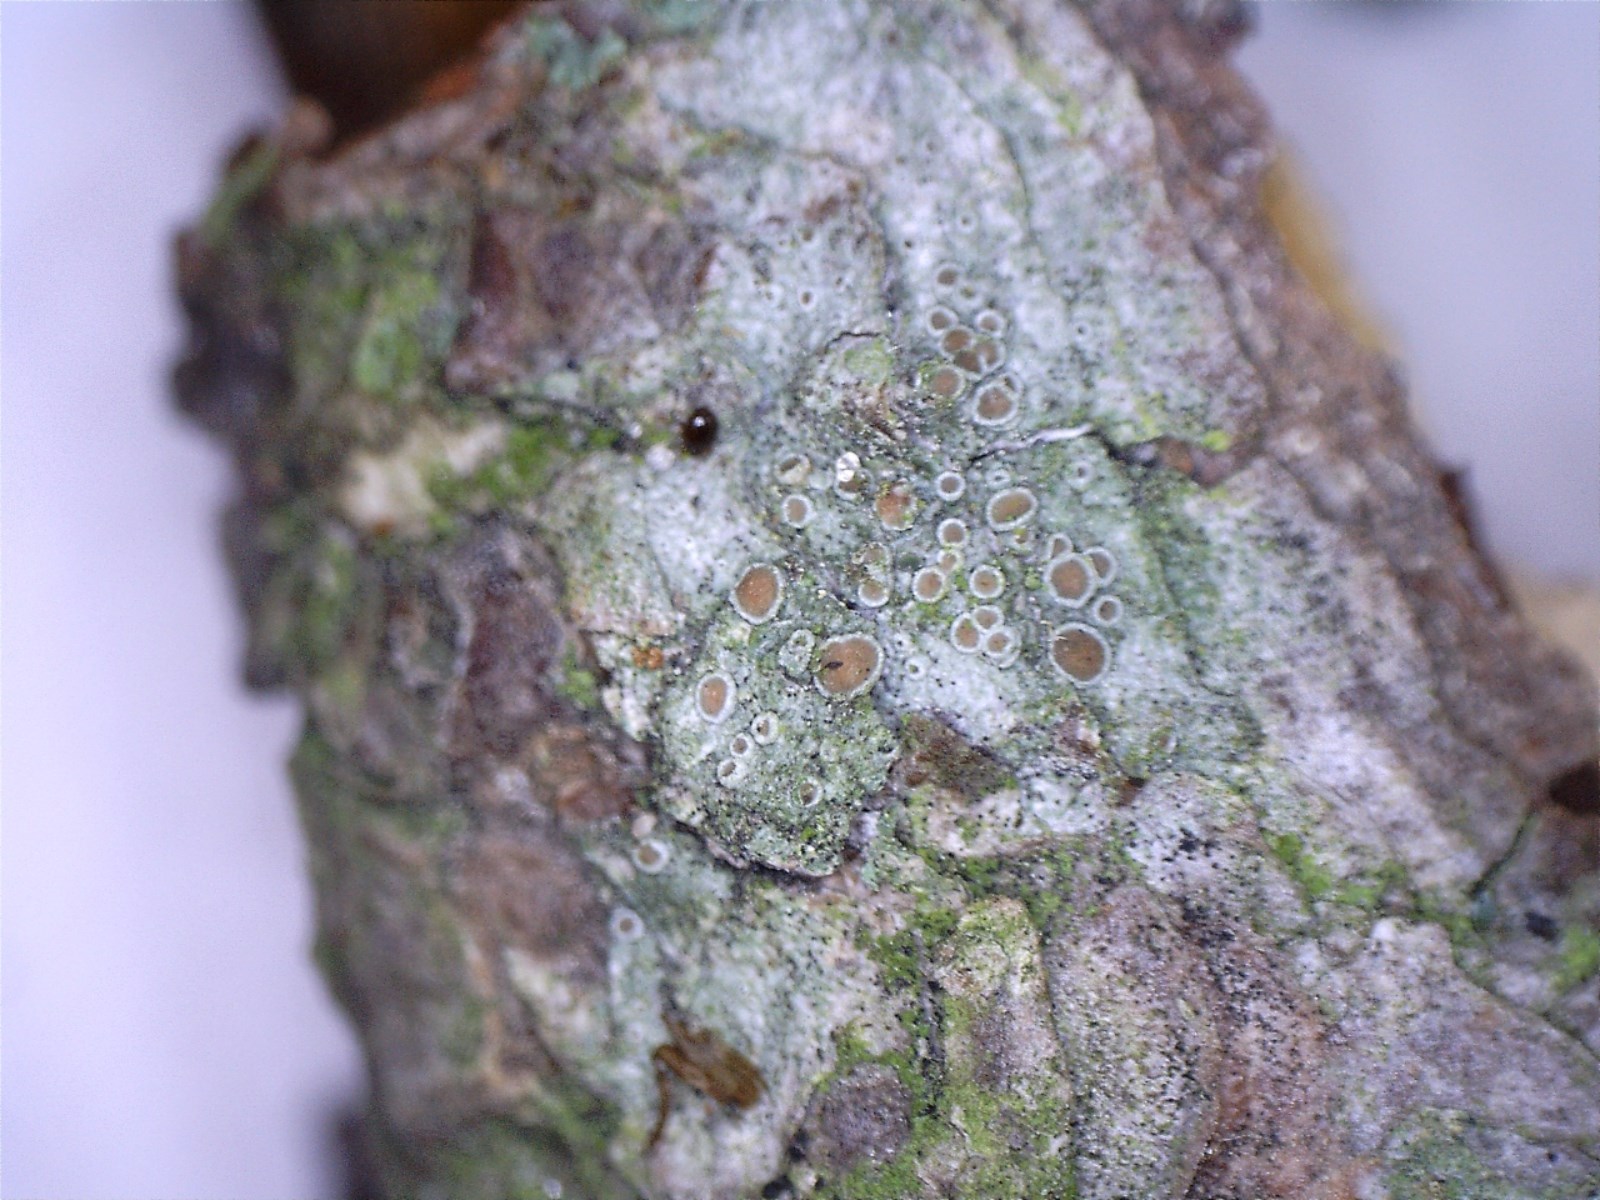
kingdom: Fungi
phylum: Ascomycota
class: Lecanoromycetes
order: Lecanorales
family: Lecanoraceae
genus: Lecanora
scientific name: Lecanora chlarotera
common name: brun kantskivelav
